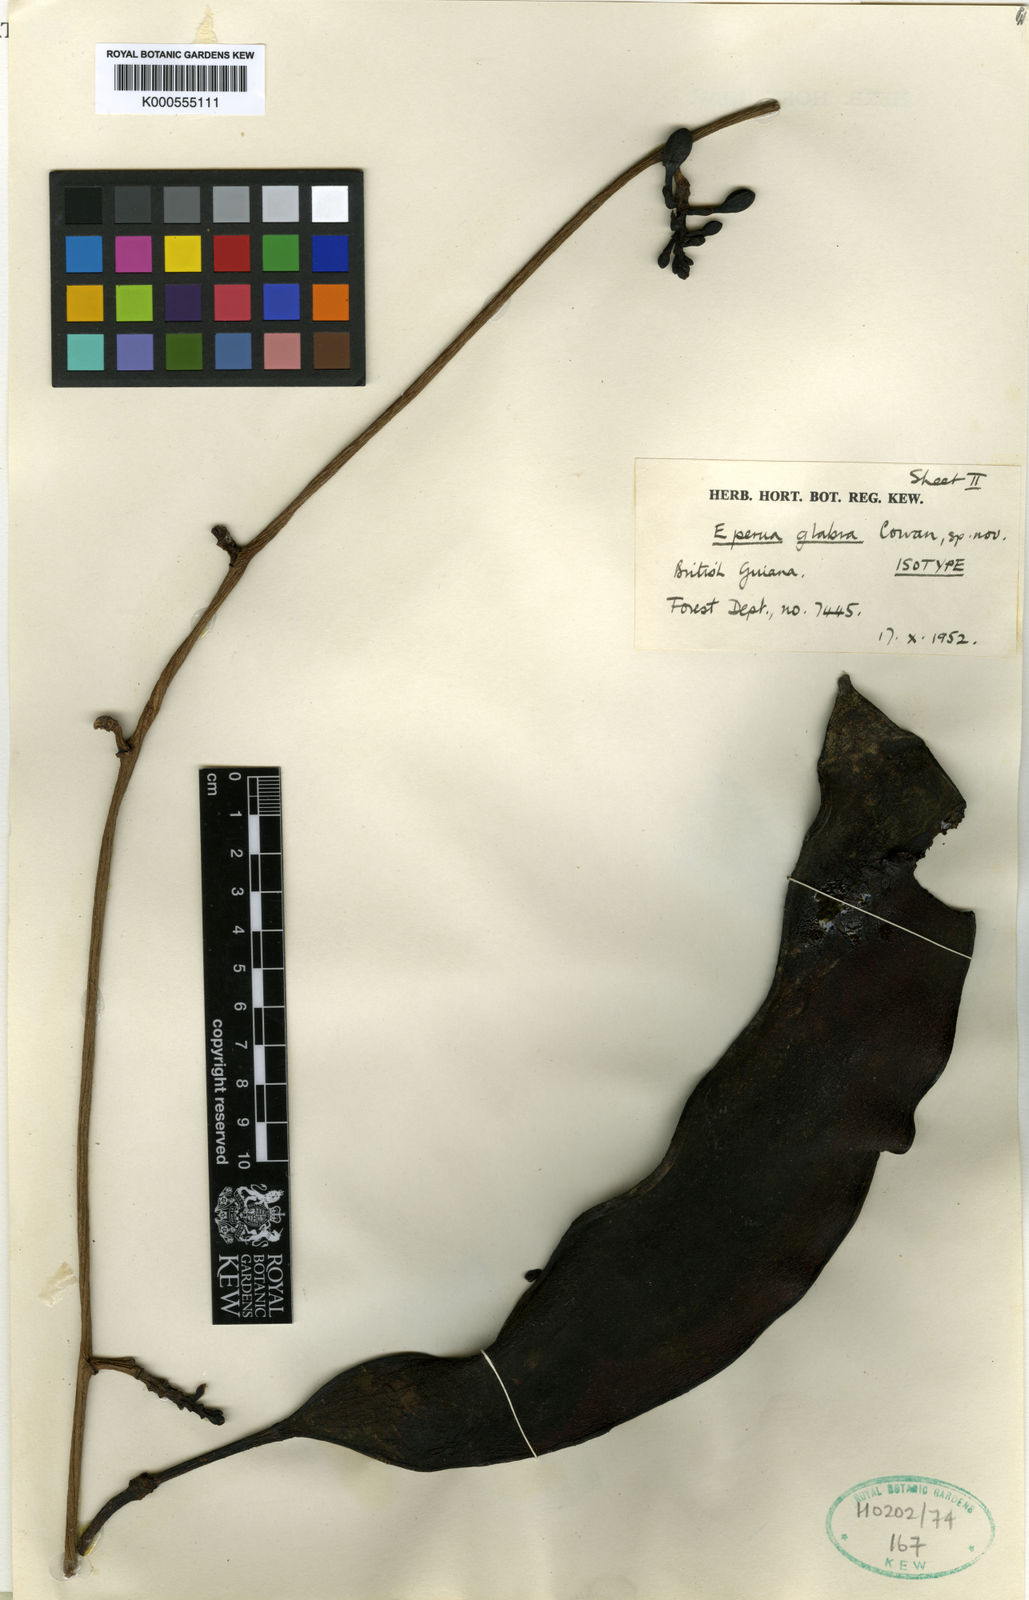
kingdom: Plantae
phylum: Tracheophyta
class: Magnoliopsida
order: Fabales
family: Fabaceae
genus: Eperua
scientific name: Eperua glabra
